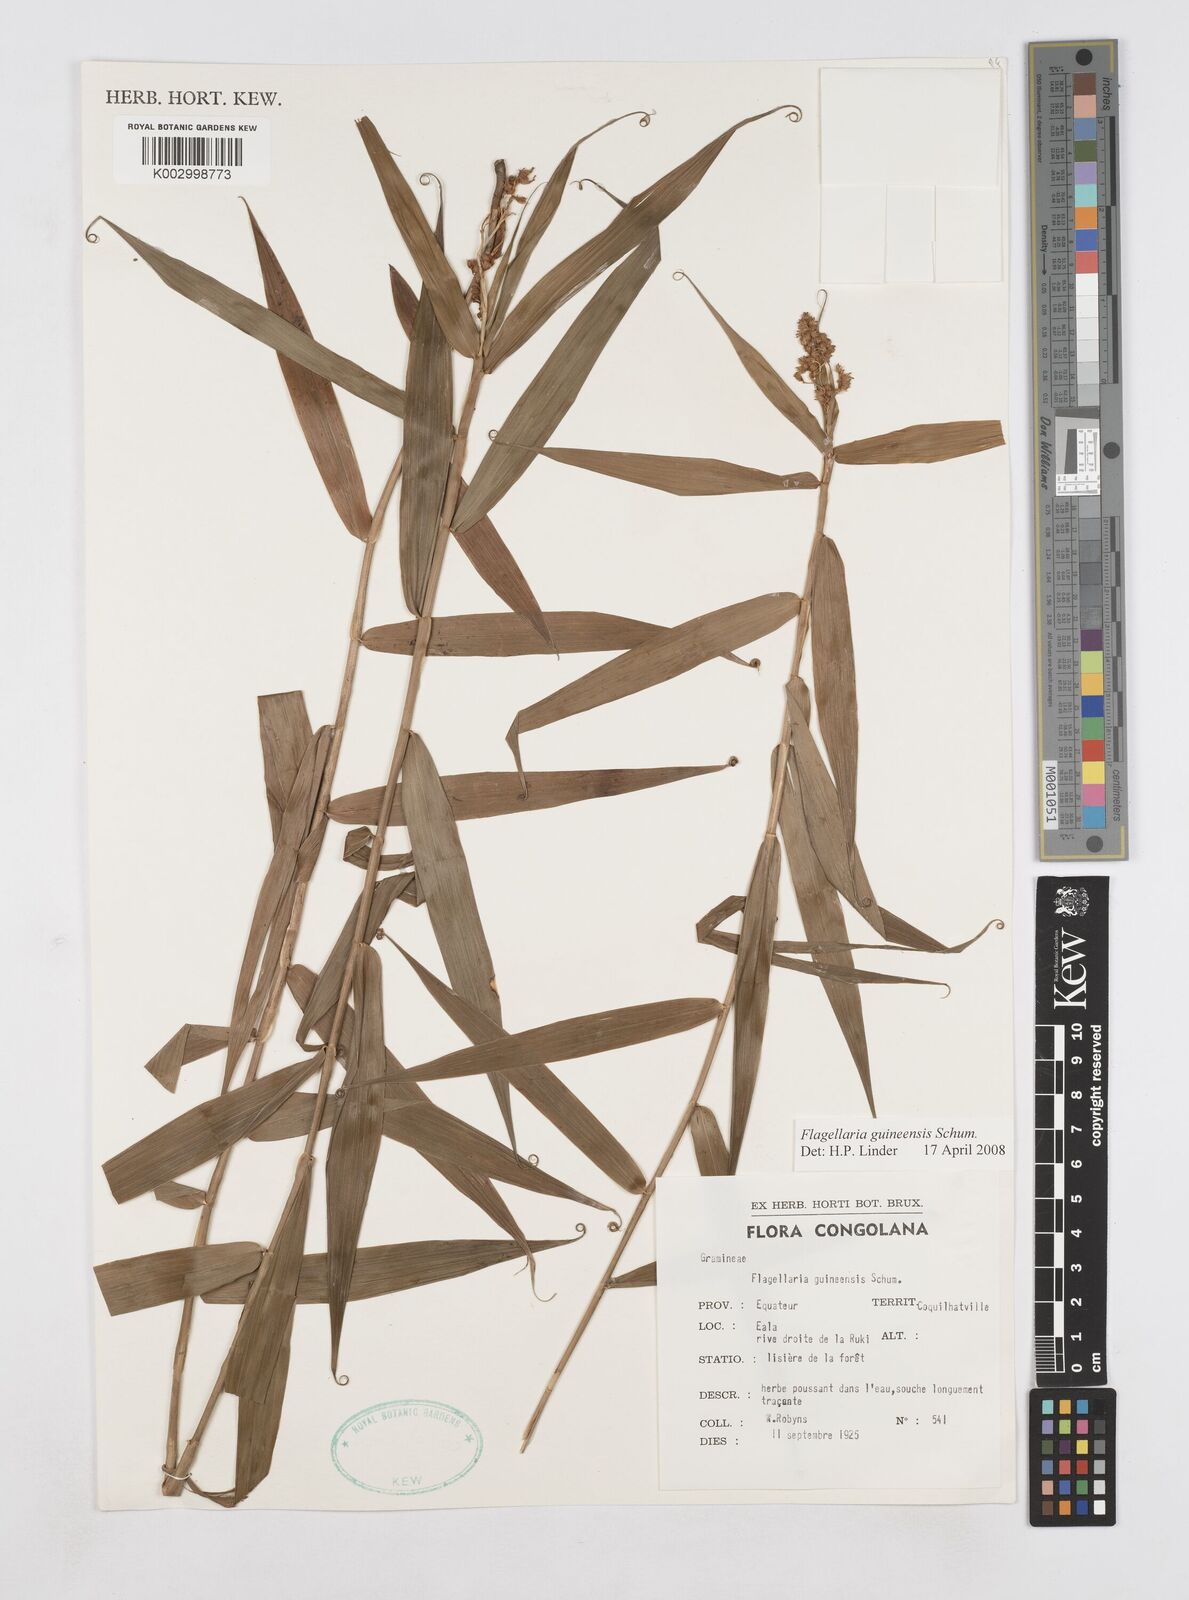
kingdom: Plantae
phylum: Tracheophyta
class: Liliopsida
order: Poales
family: Flagellariaceae
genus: Flagellaria
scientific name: Flagellaria guineensis
